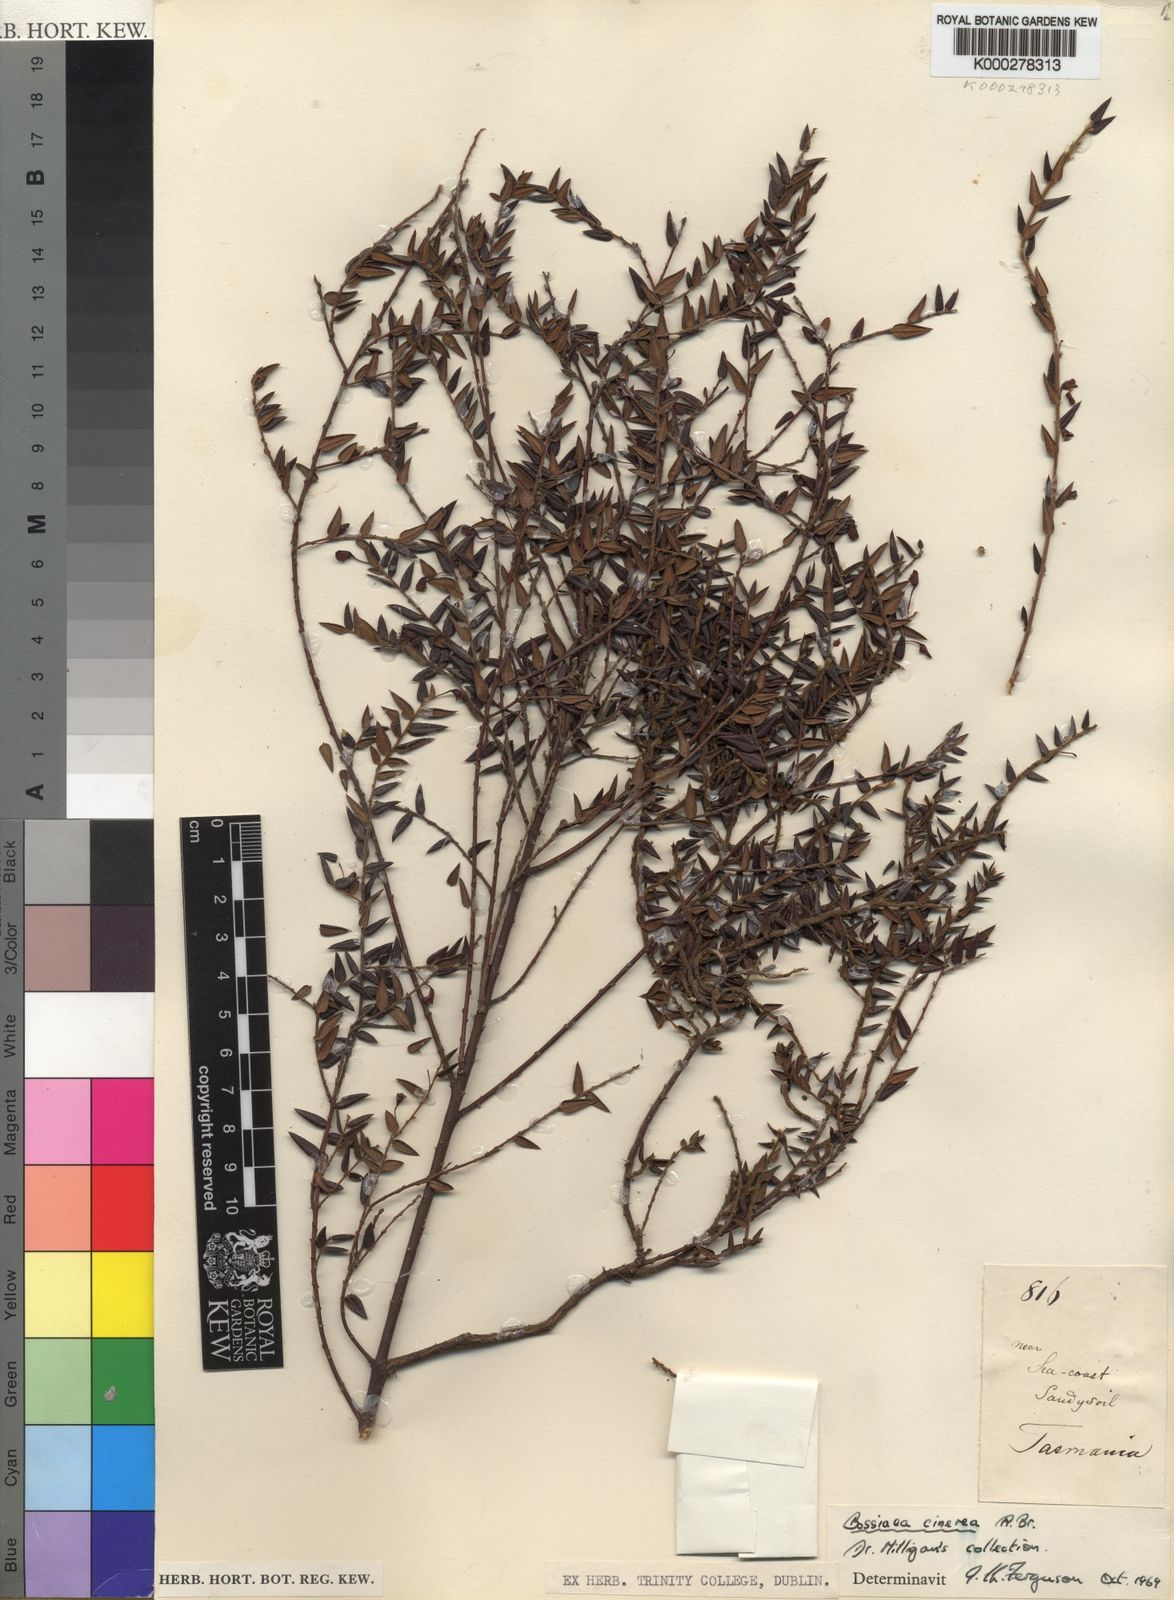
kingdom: Plantae
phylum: Tracheophyta
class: Magnoliopsida
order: Fabales
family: Fabaceae
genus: Bossiaea
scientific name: Bossiaea cinerea
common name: Showy bossiaea
